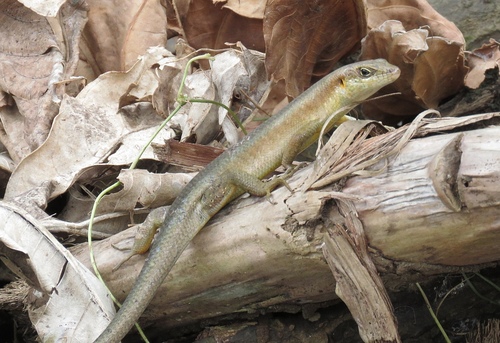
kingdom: Animalia
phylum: Chordata
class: Squamata
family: Scincidae
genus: Trachylepis
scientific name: Trachylepis thomensis
